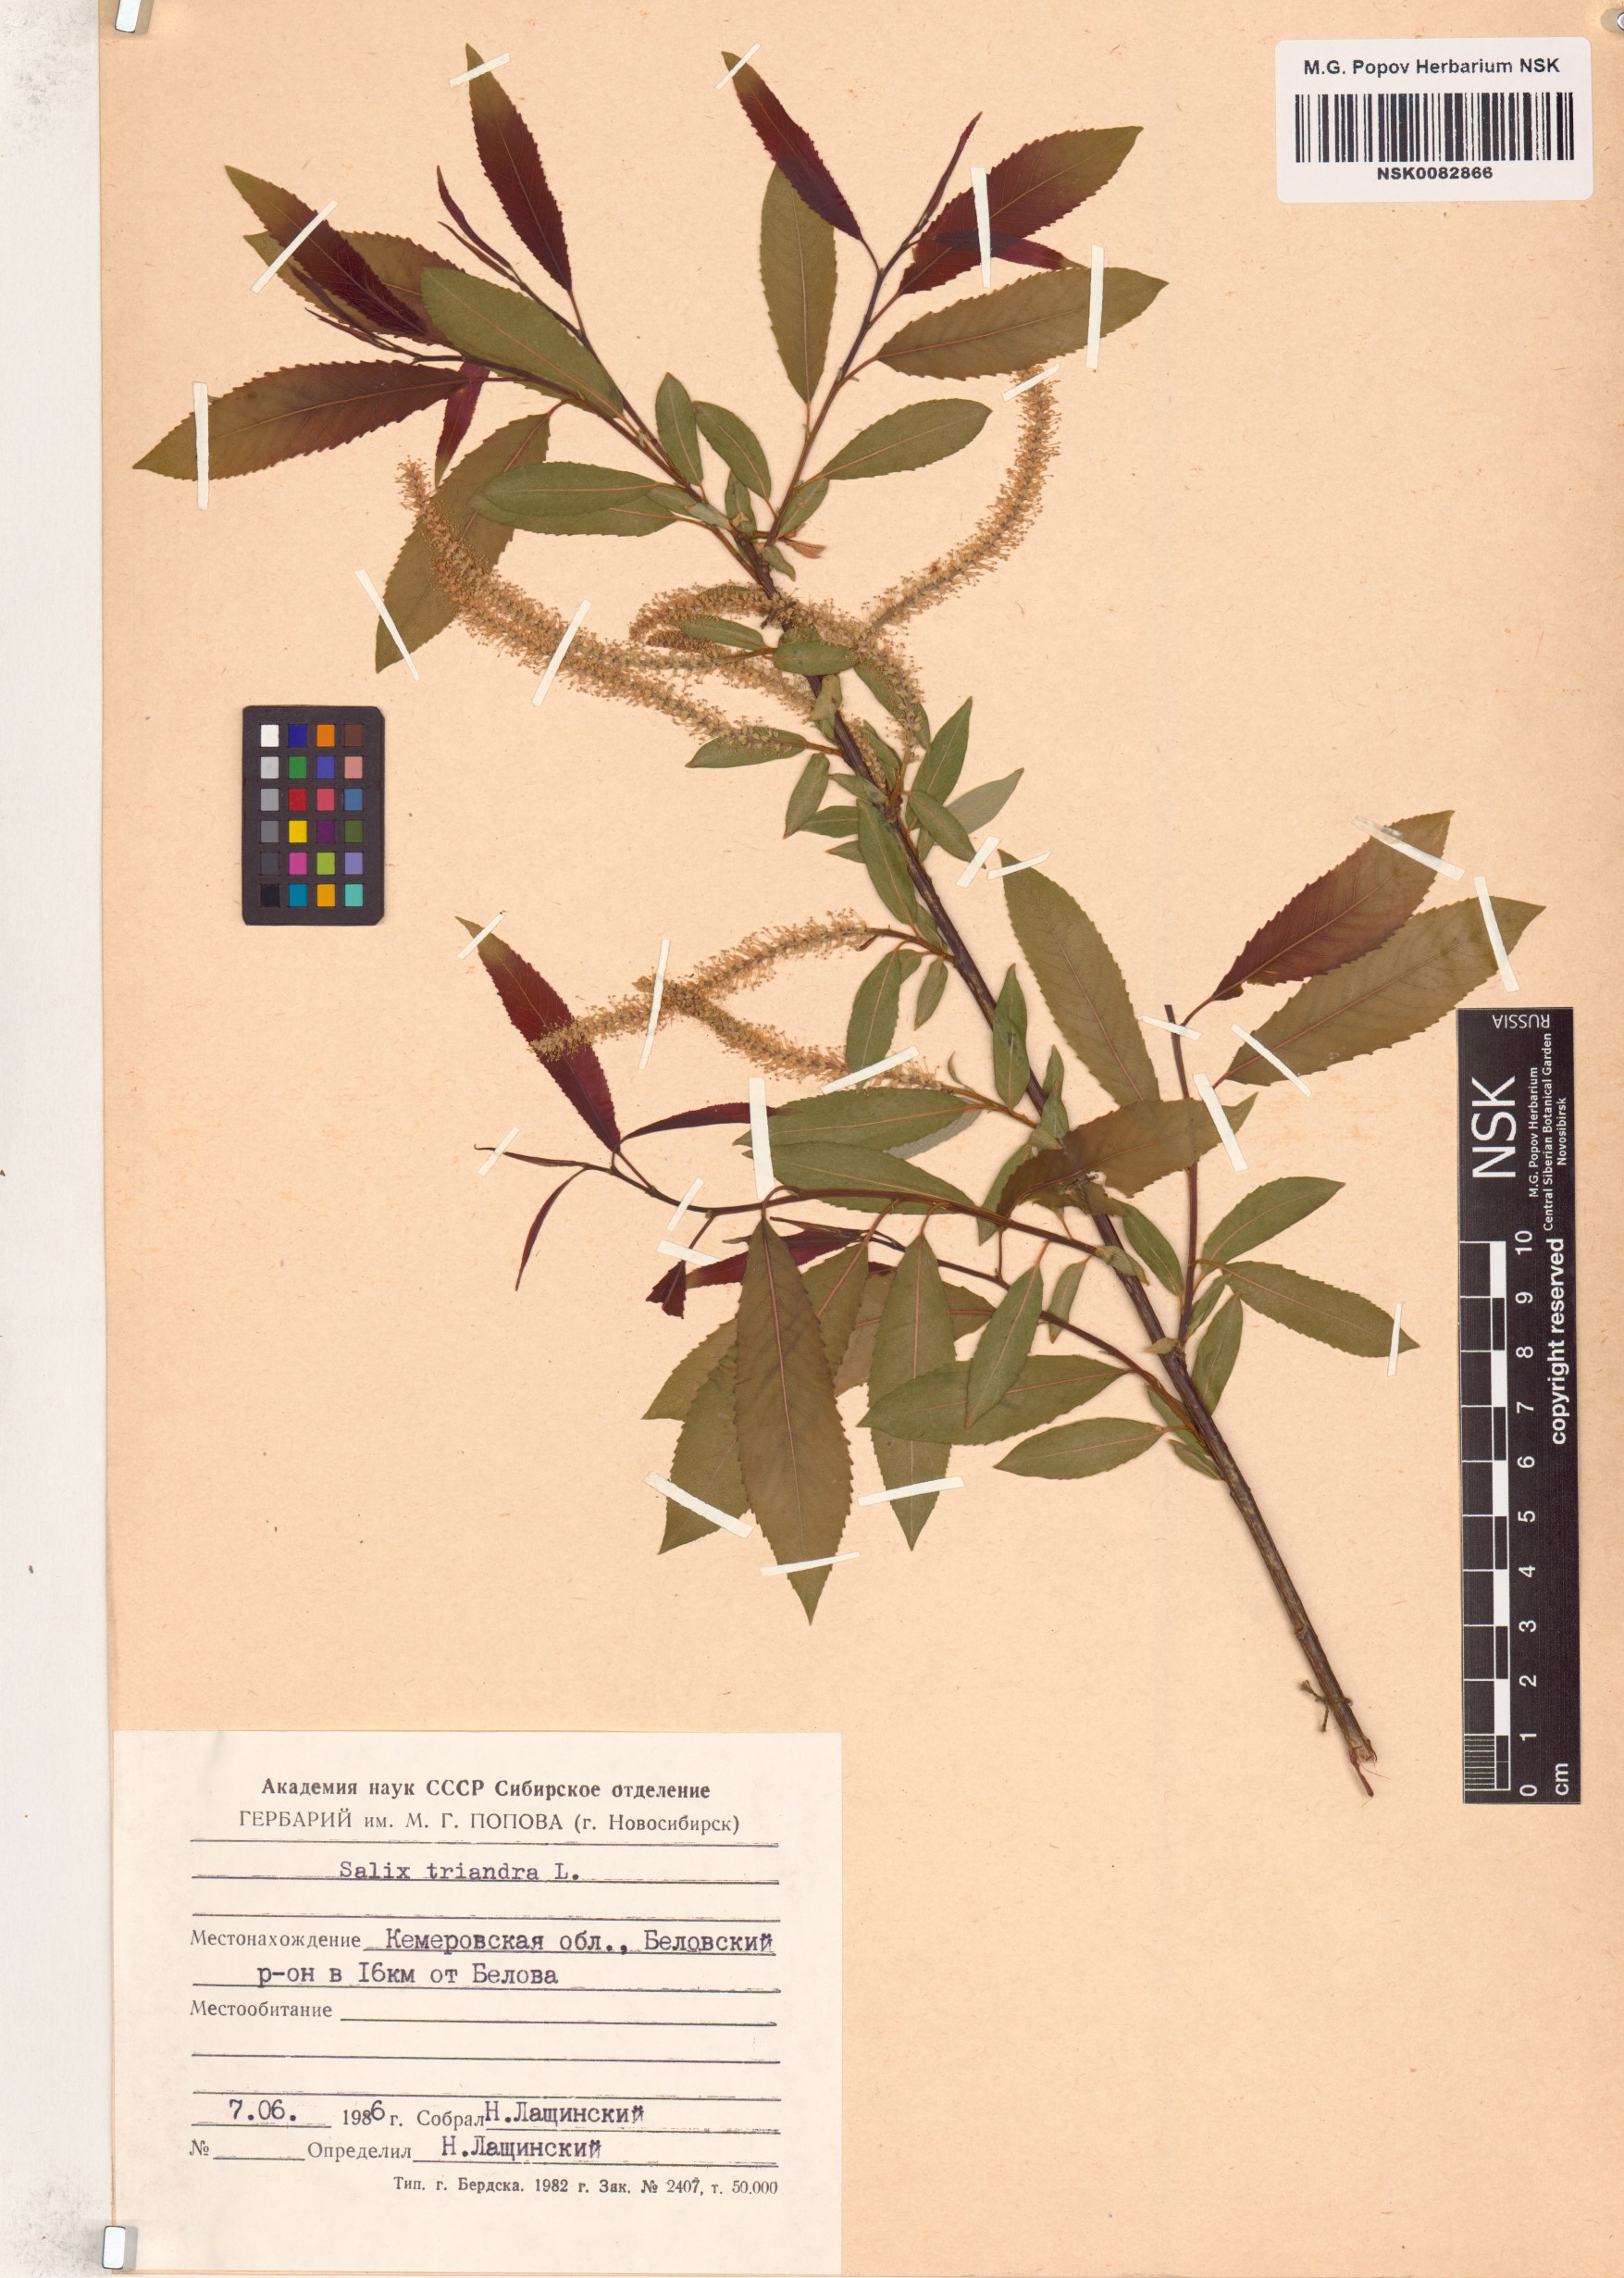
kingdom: Plantae
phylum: Tracheophyta
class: Magnoliopsida
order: Malpighiales
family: Salicaceae
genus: Salix
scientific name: Salix triandra
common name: Almond willow
